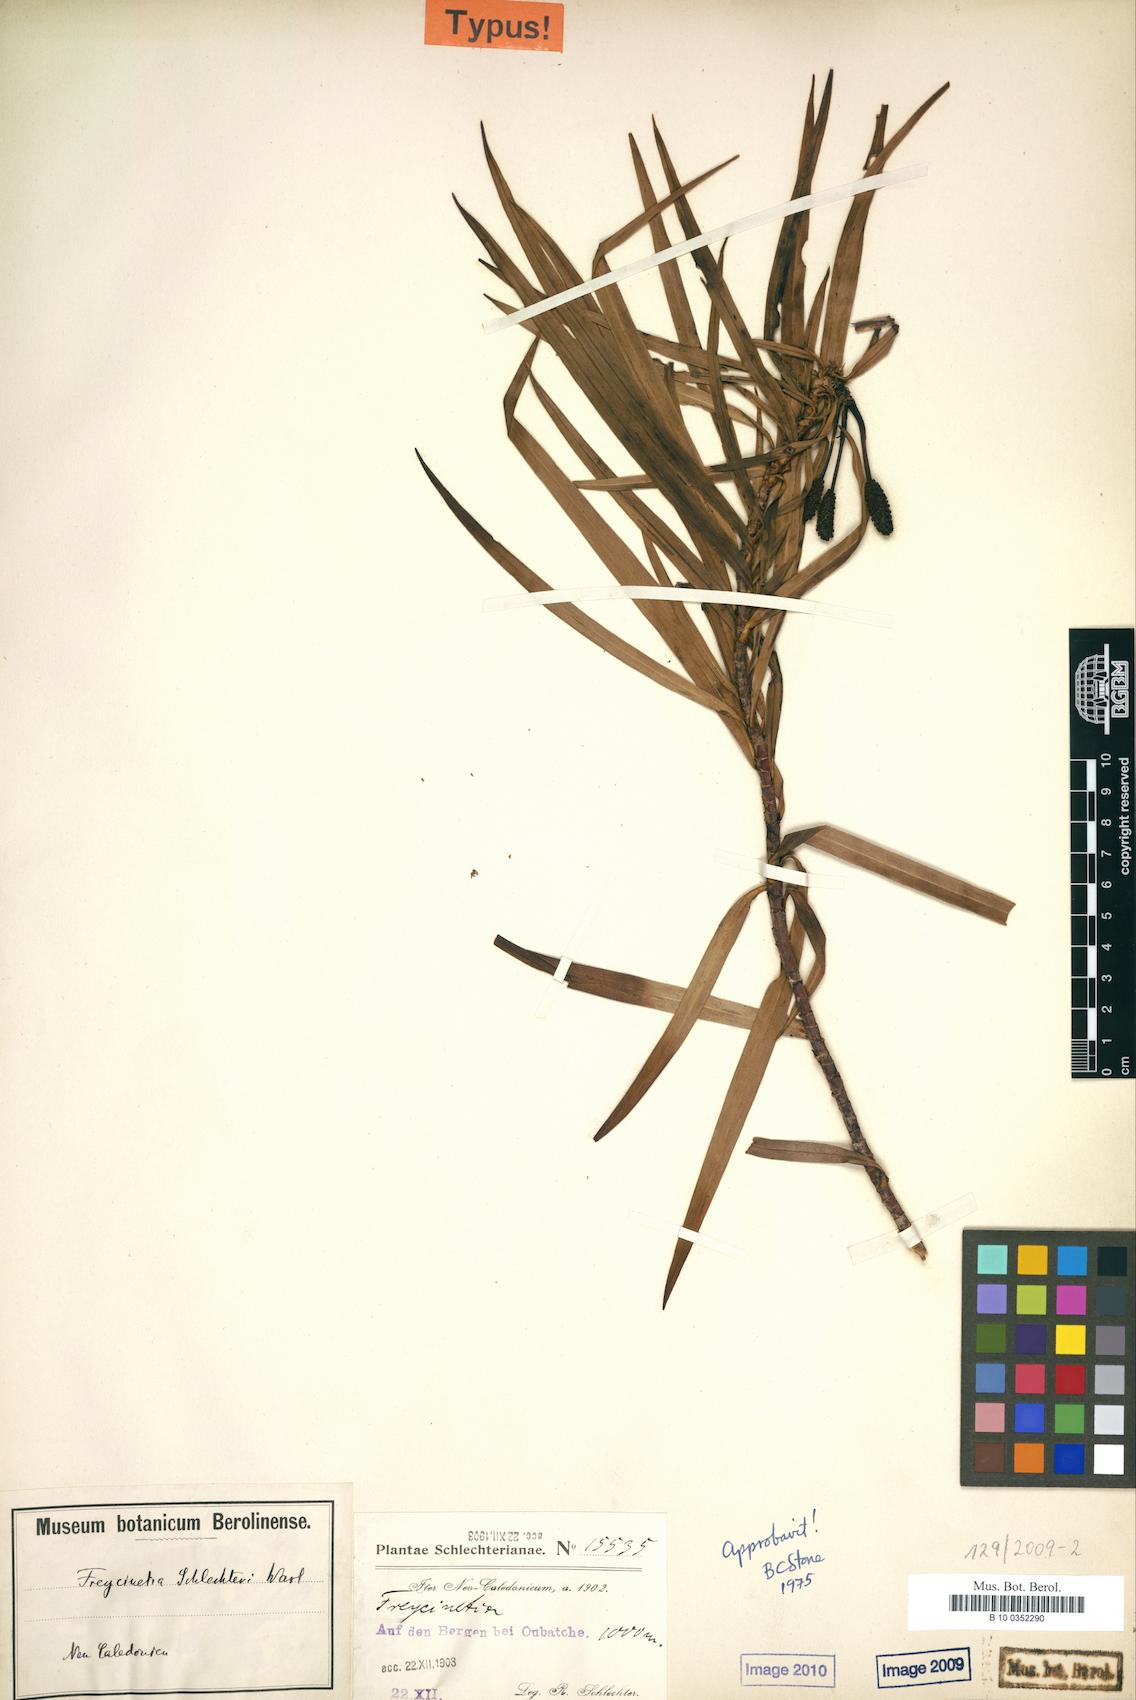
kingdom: Plantae
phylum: Tracheophyta
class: Liliopsida
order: Pandanales
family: Pandanaceae
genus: Freycinetia
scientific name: Freycinetia schlechteri
